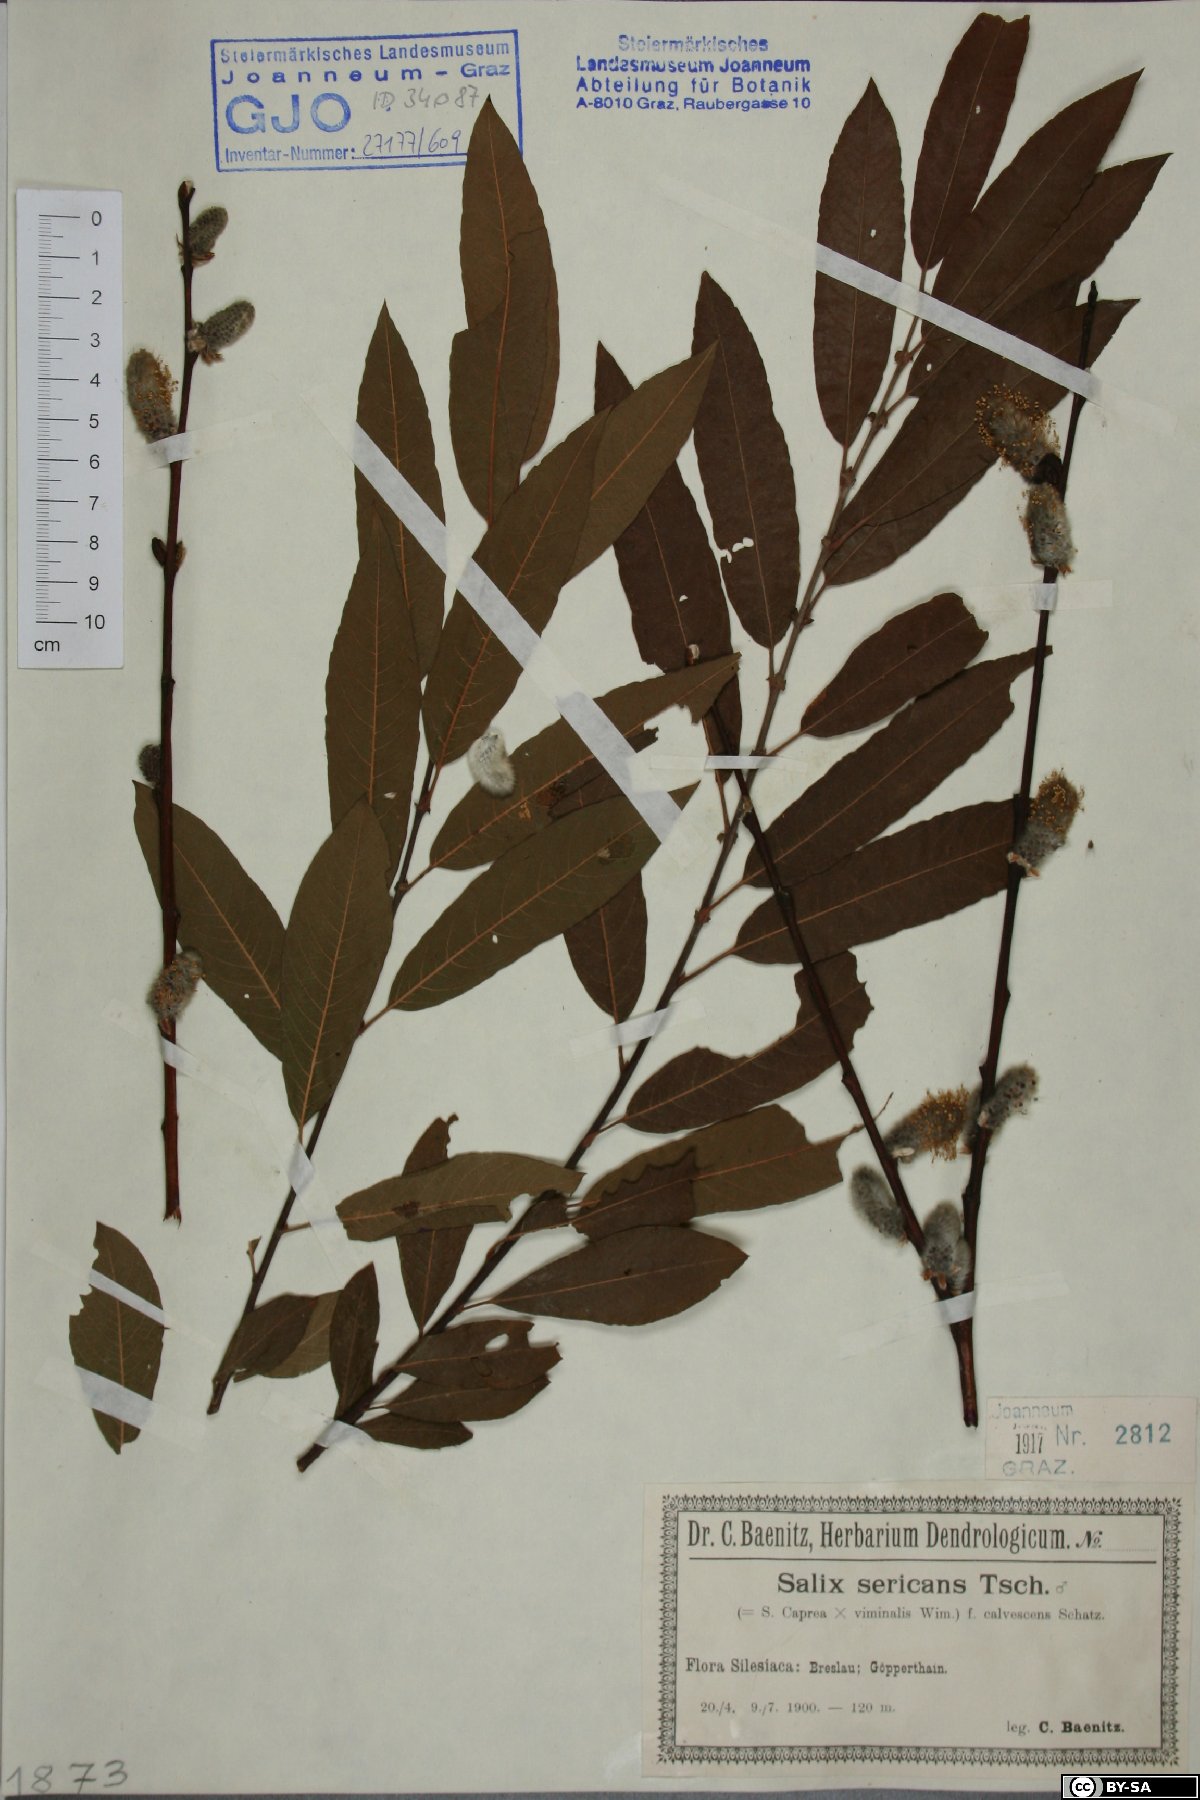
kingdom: Plantae
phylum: Tracheophyta
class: Magnoliopsida
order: Malpighiales
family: Salicaceae
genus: Salix
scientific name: Salix gmelinii
